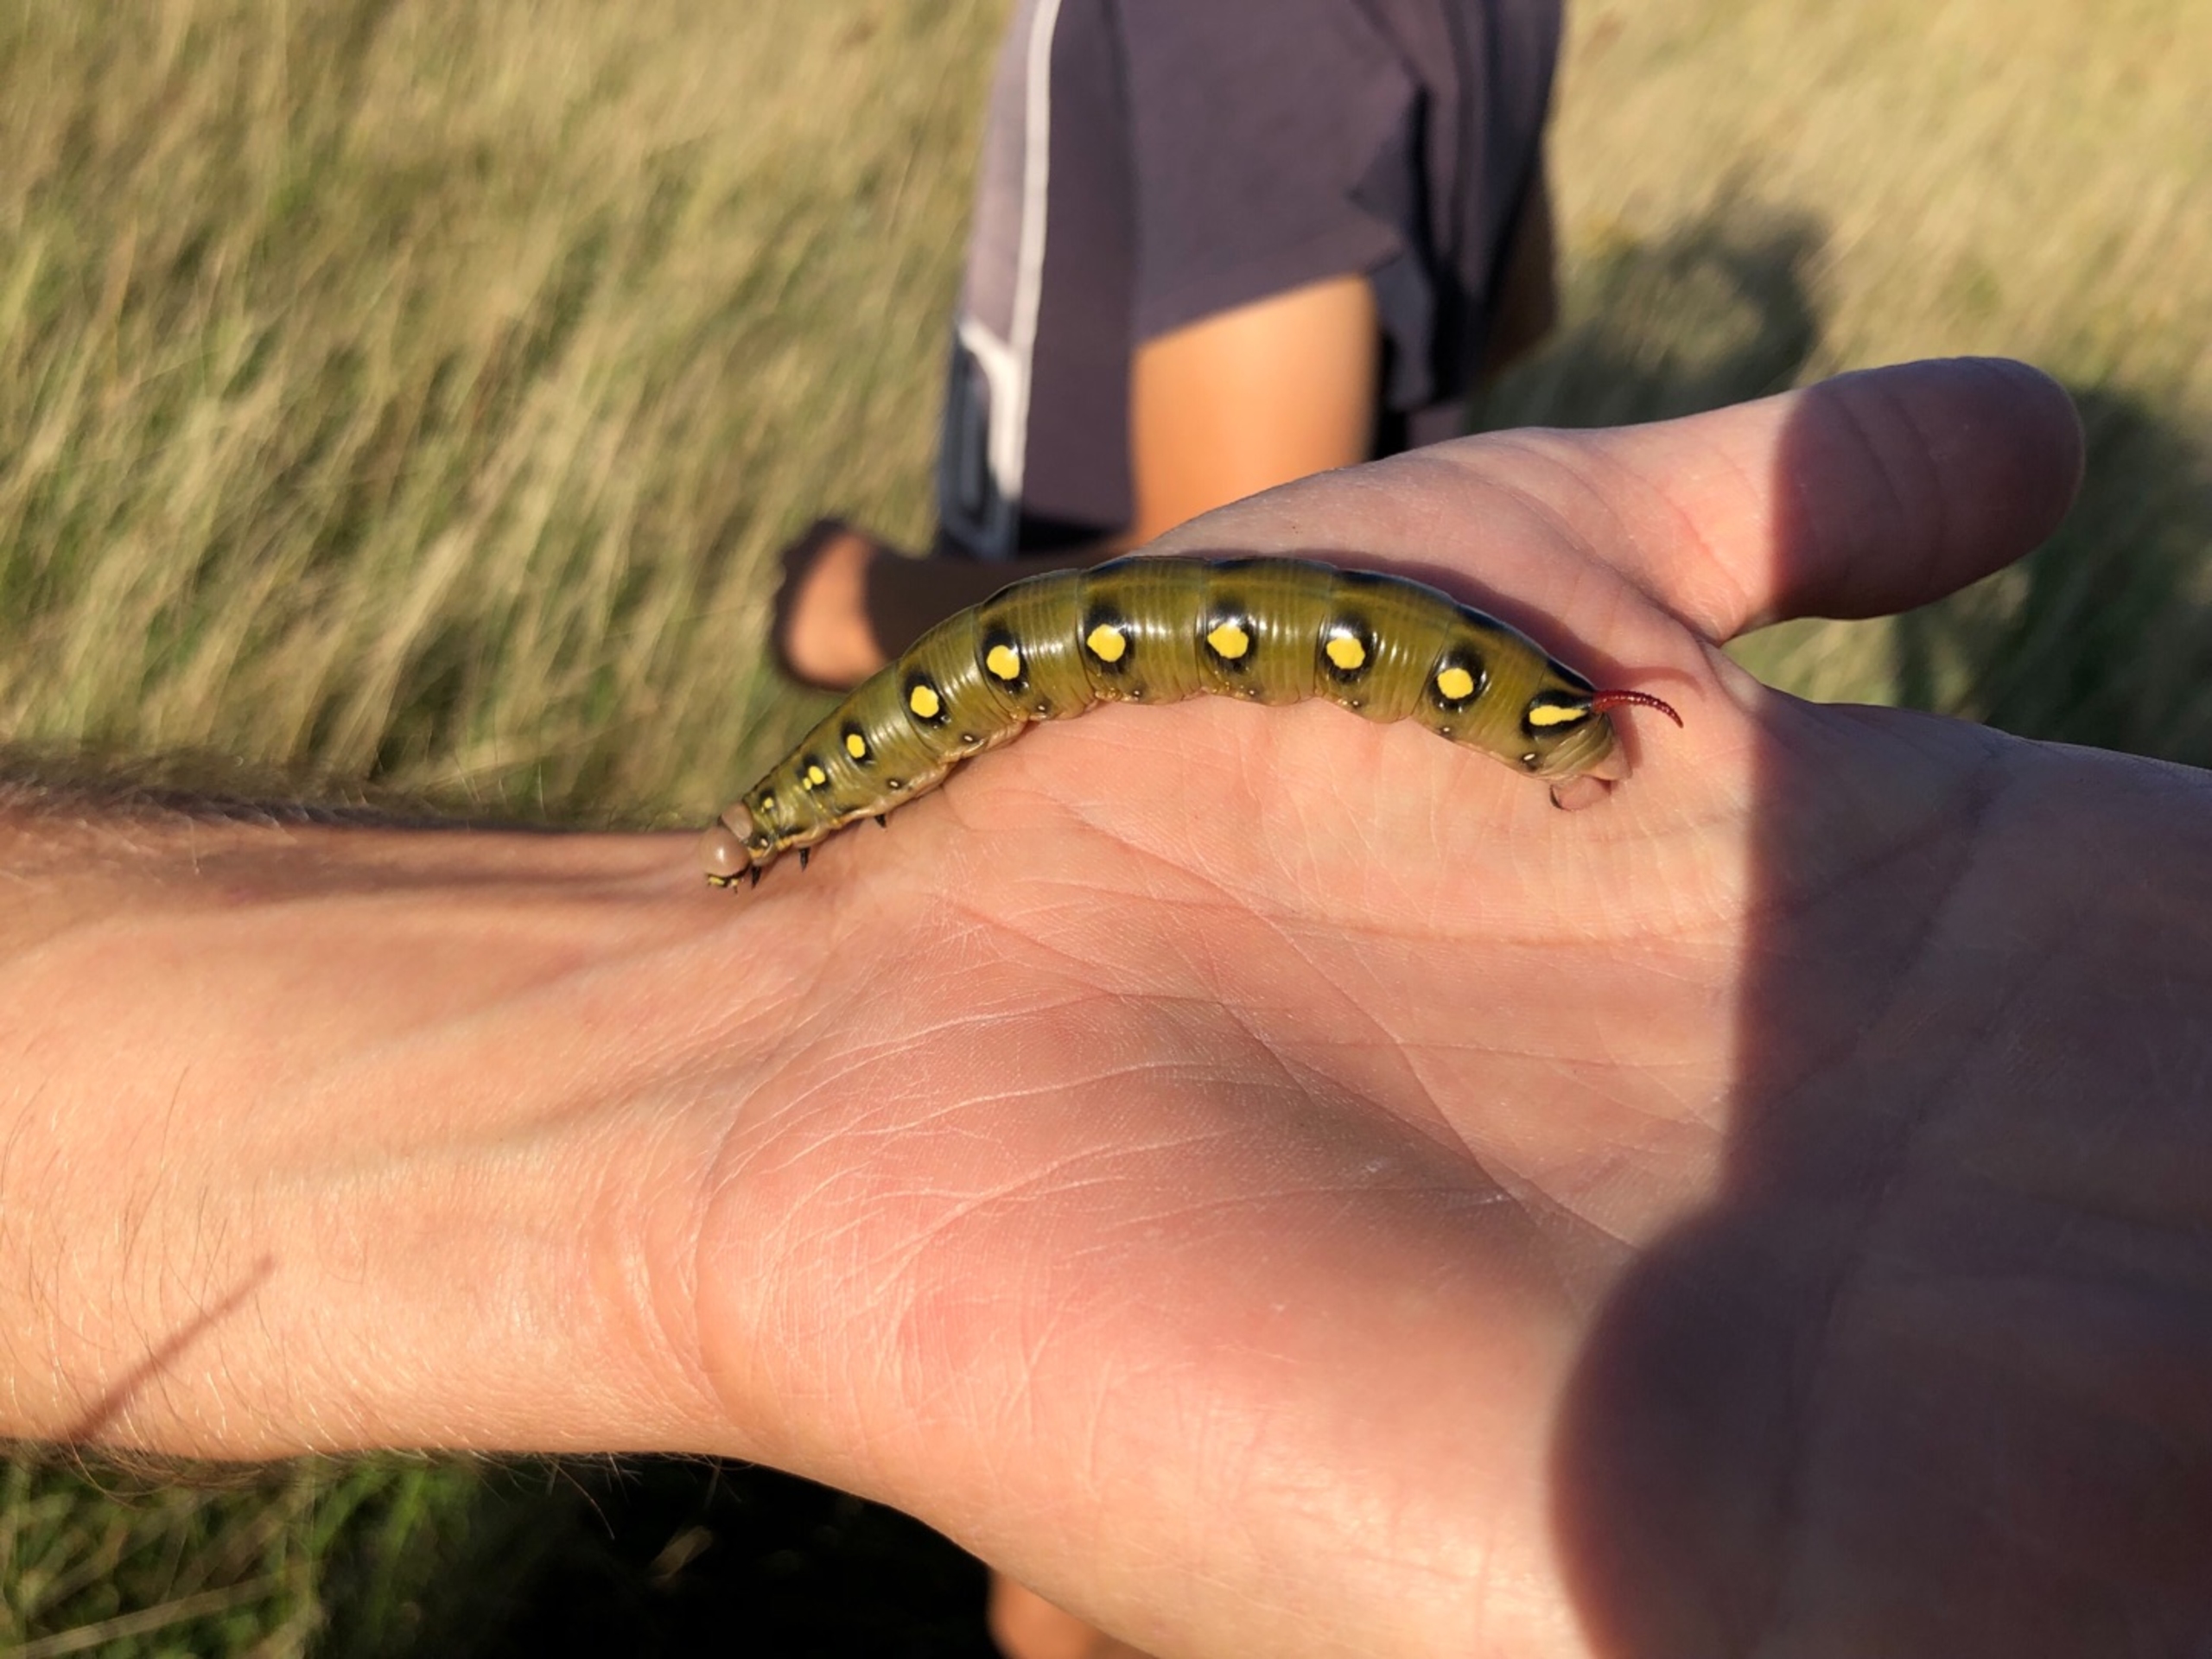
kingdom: Animalia
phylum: Arthropoda
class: Insecta
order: Lepidoptera
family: Sphingidae
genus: Hyles
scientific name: Hyles gallii
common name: Snerresværmer
